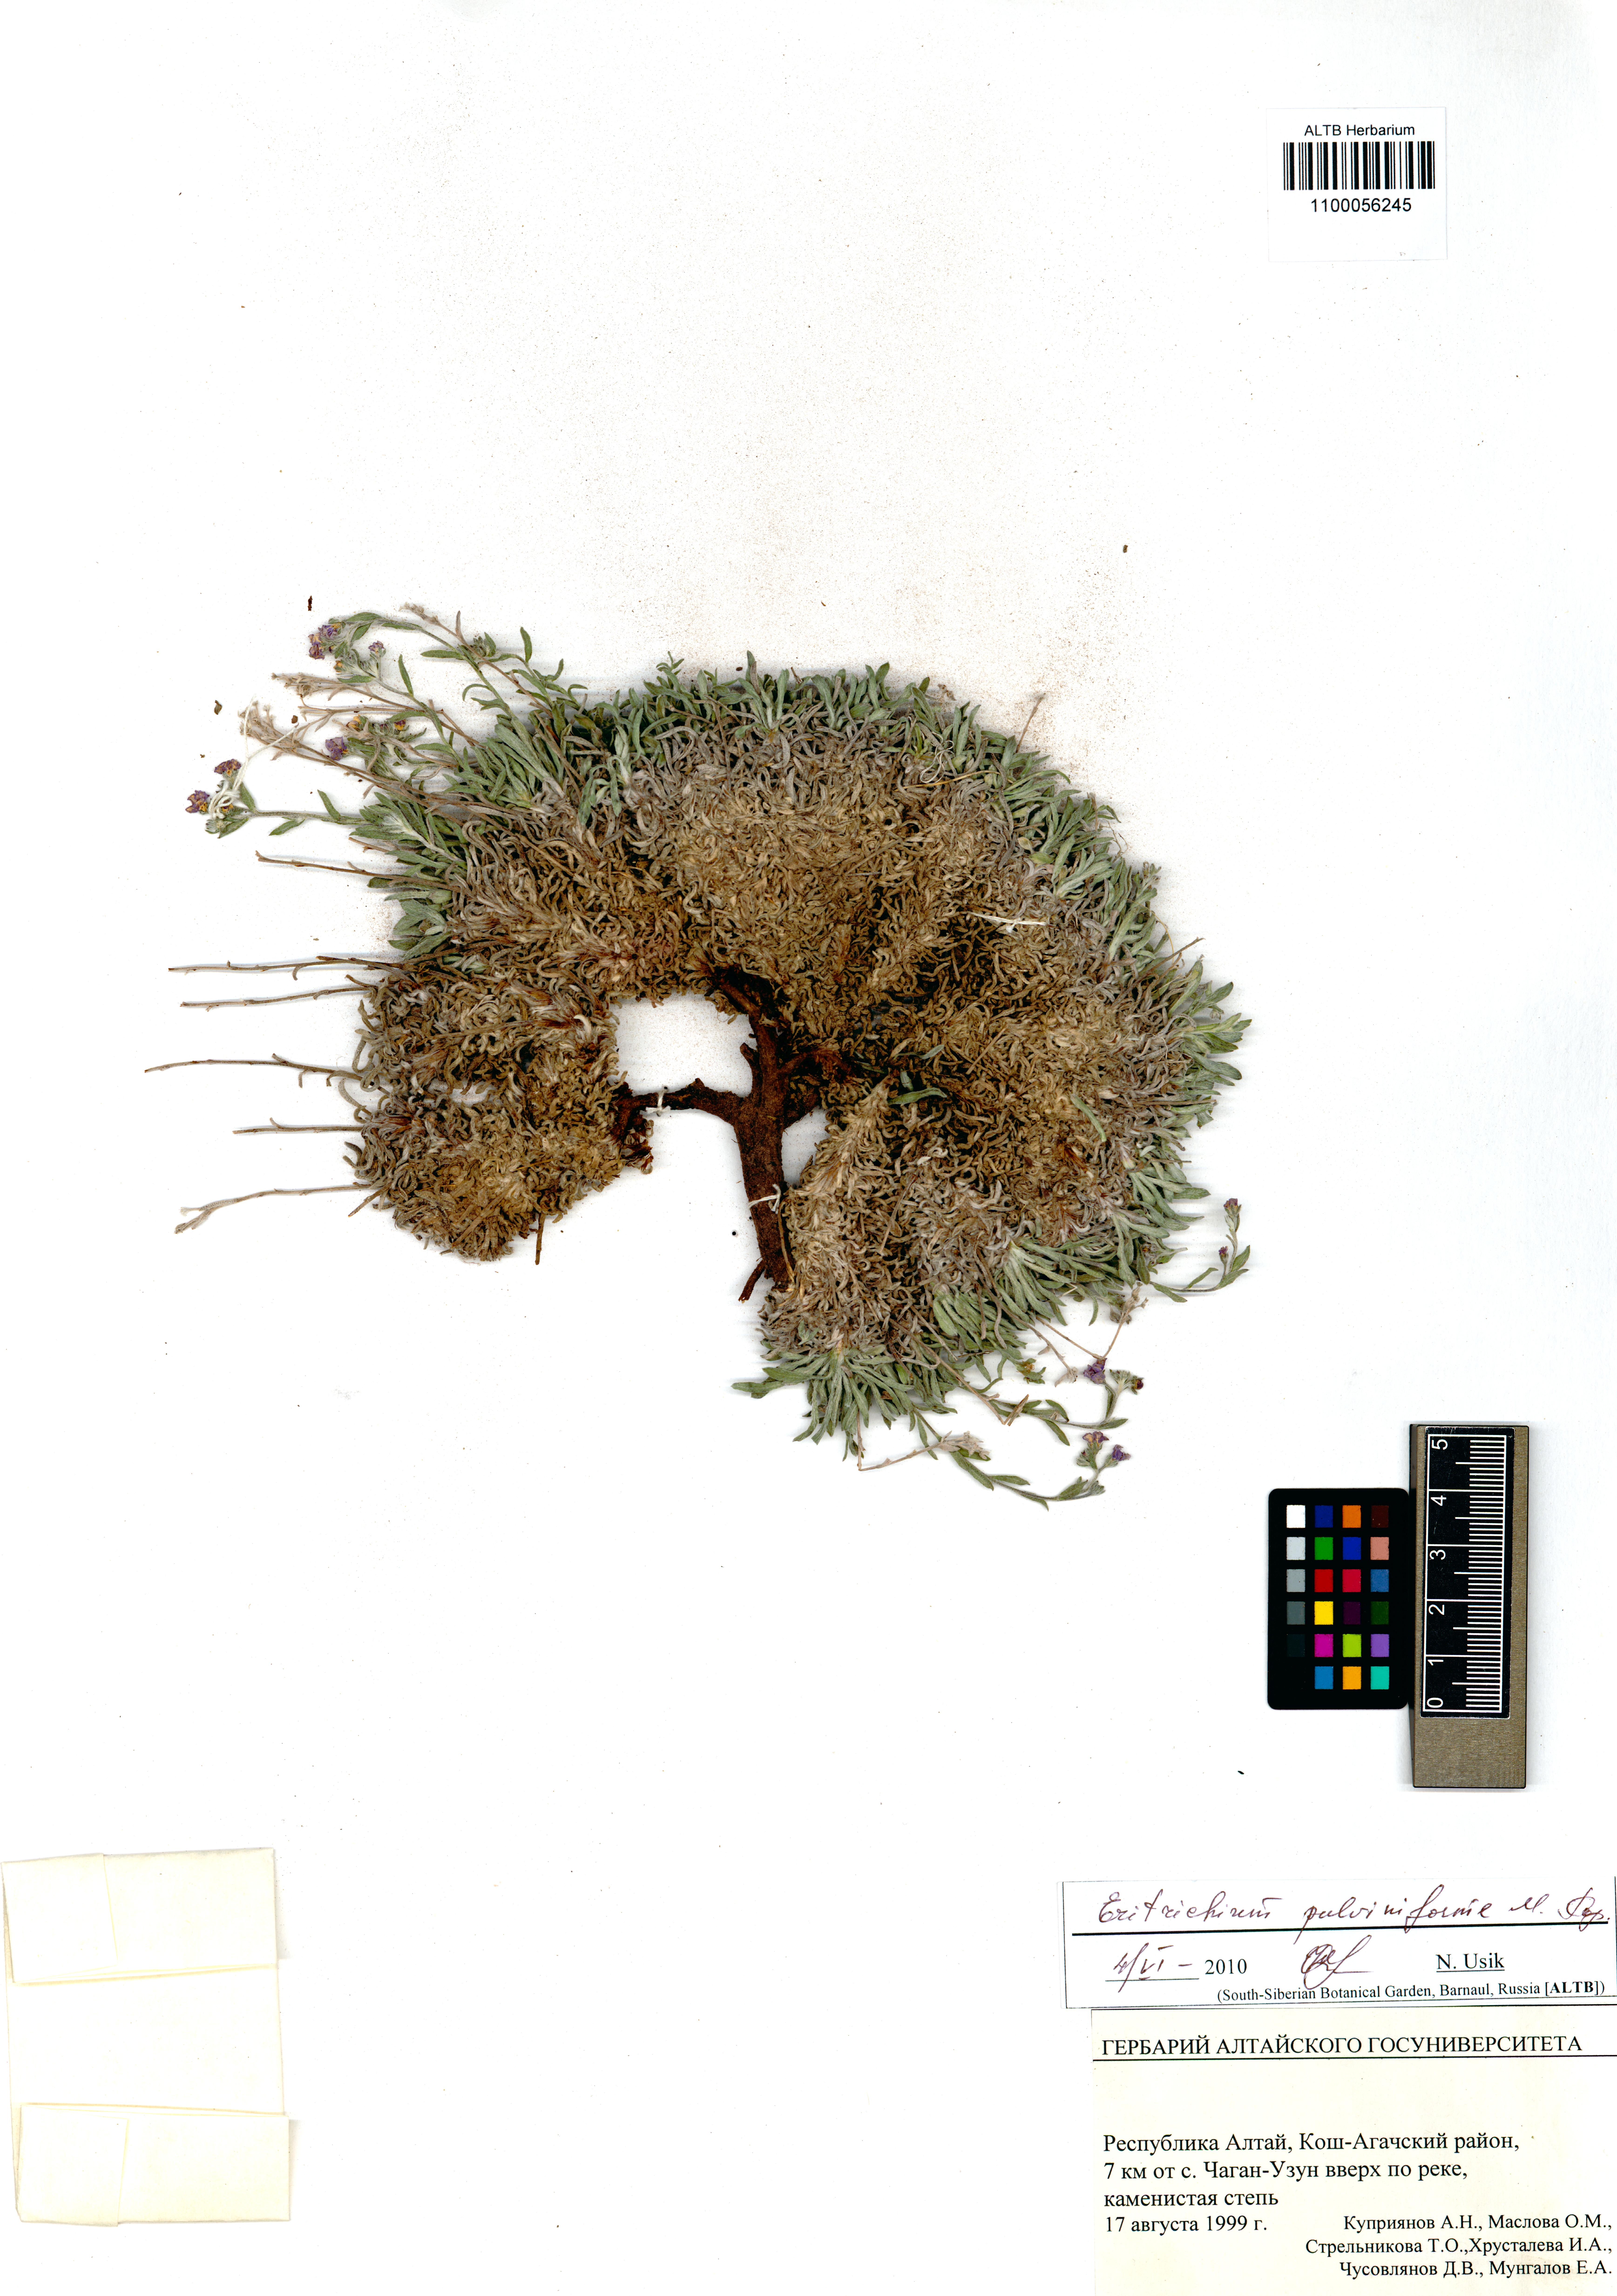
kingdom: Plantae
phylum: Tracheophyta
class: Magnoliopsida
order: Boraginales
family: Boraginaceae
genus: Eritrichium
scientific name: Eritrichium pauciflorum
